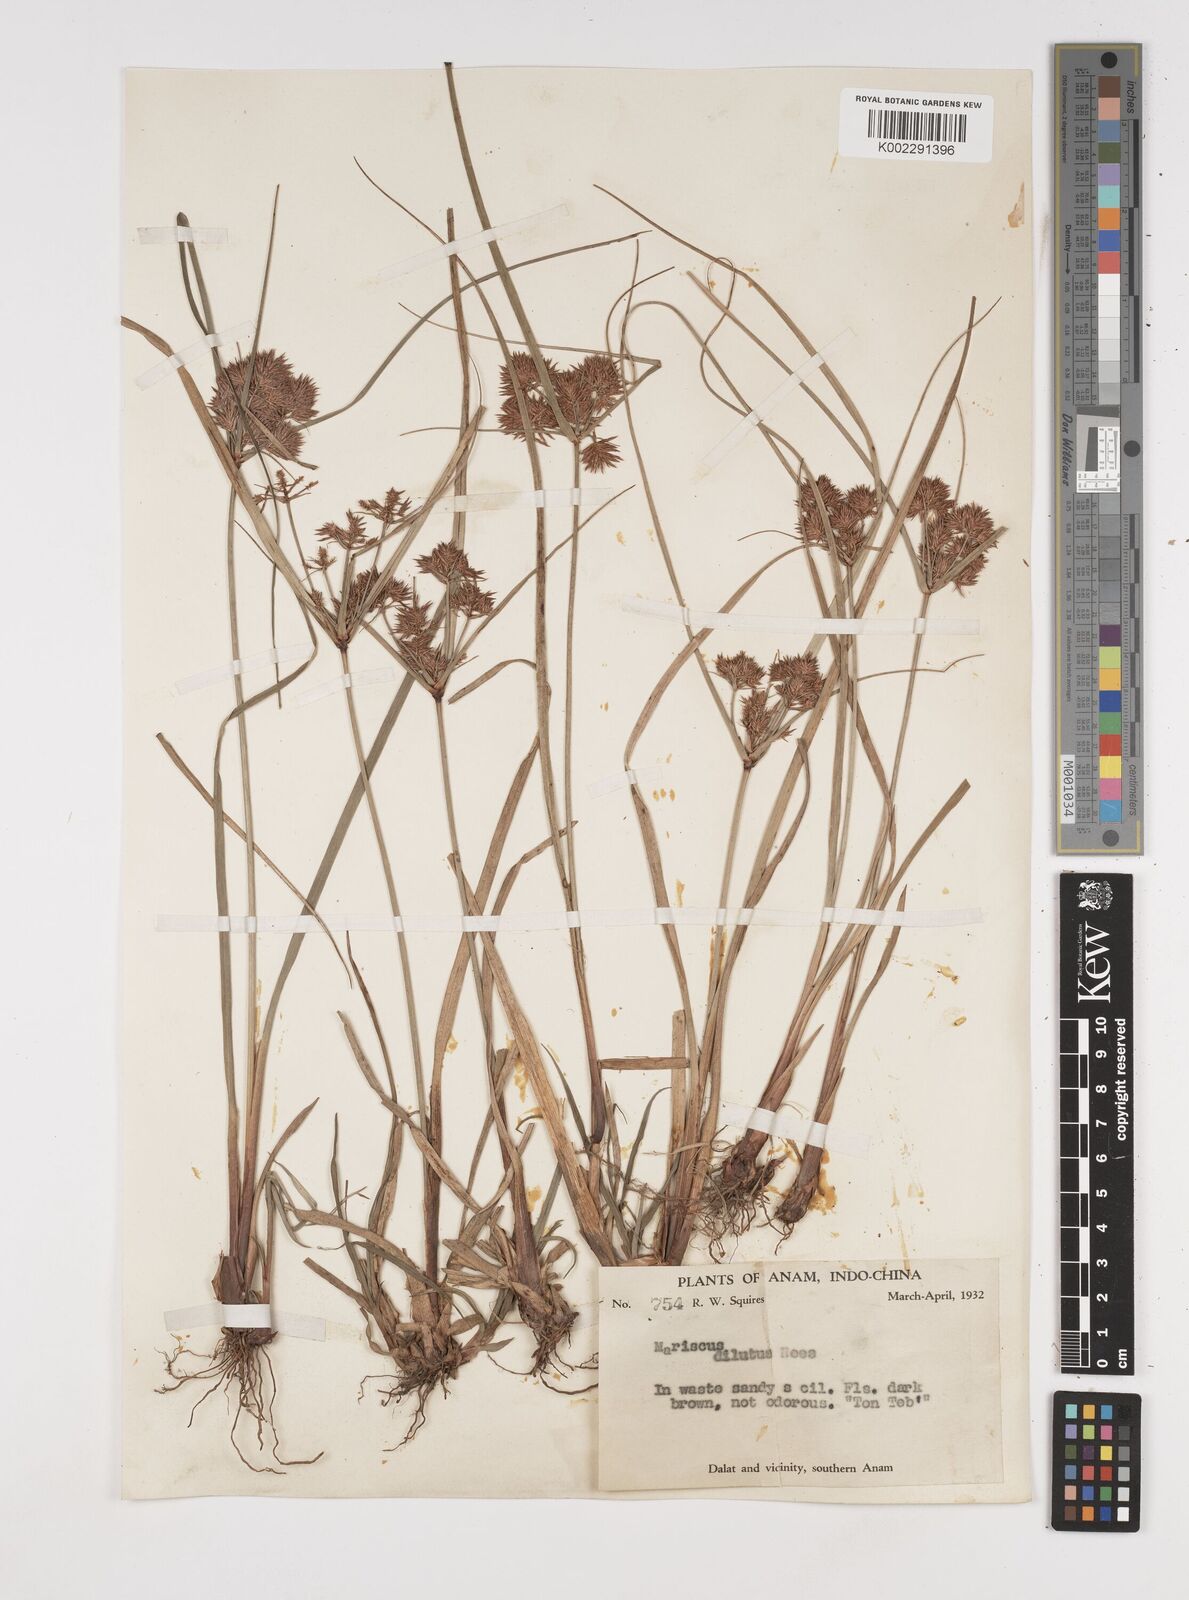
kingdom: Plantae
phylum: Tracheophyta
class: Liliopsida
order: Poales
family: Cyperaceae
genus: Cyperus
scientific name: Cyperus compactus
